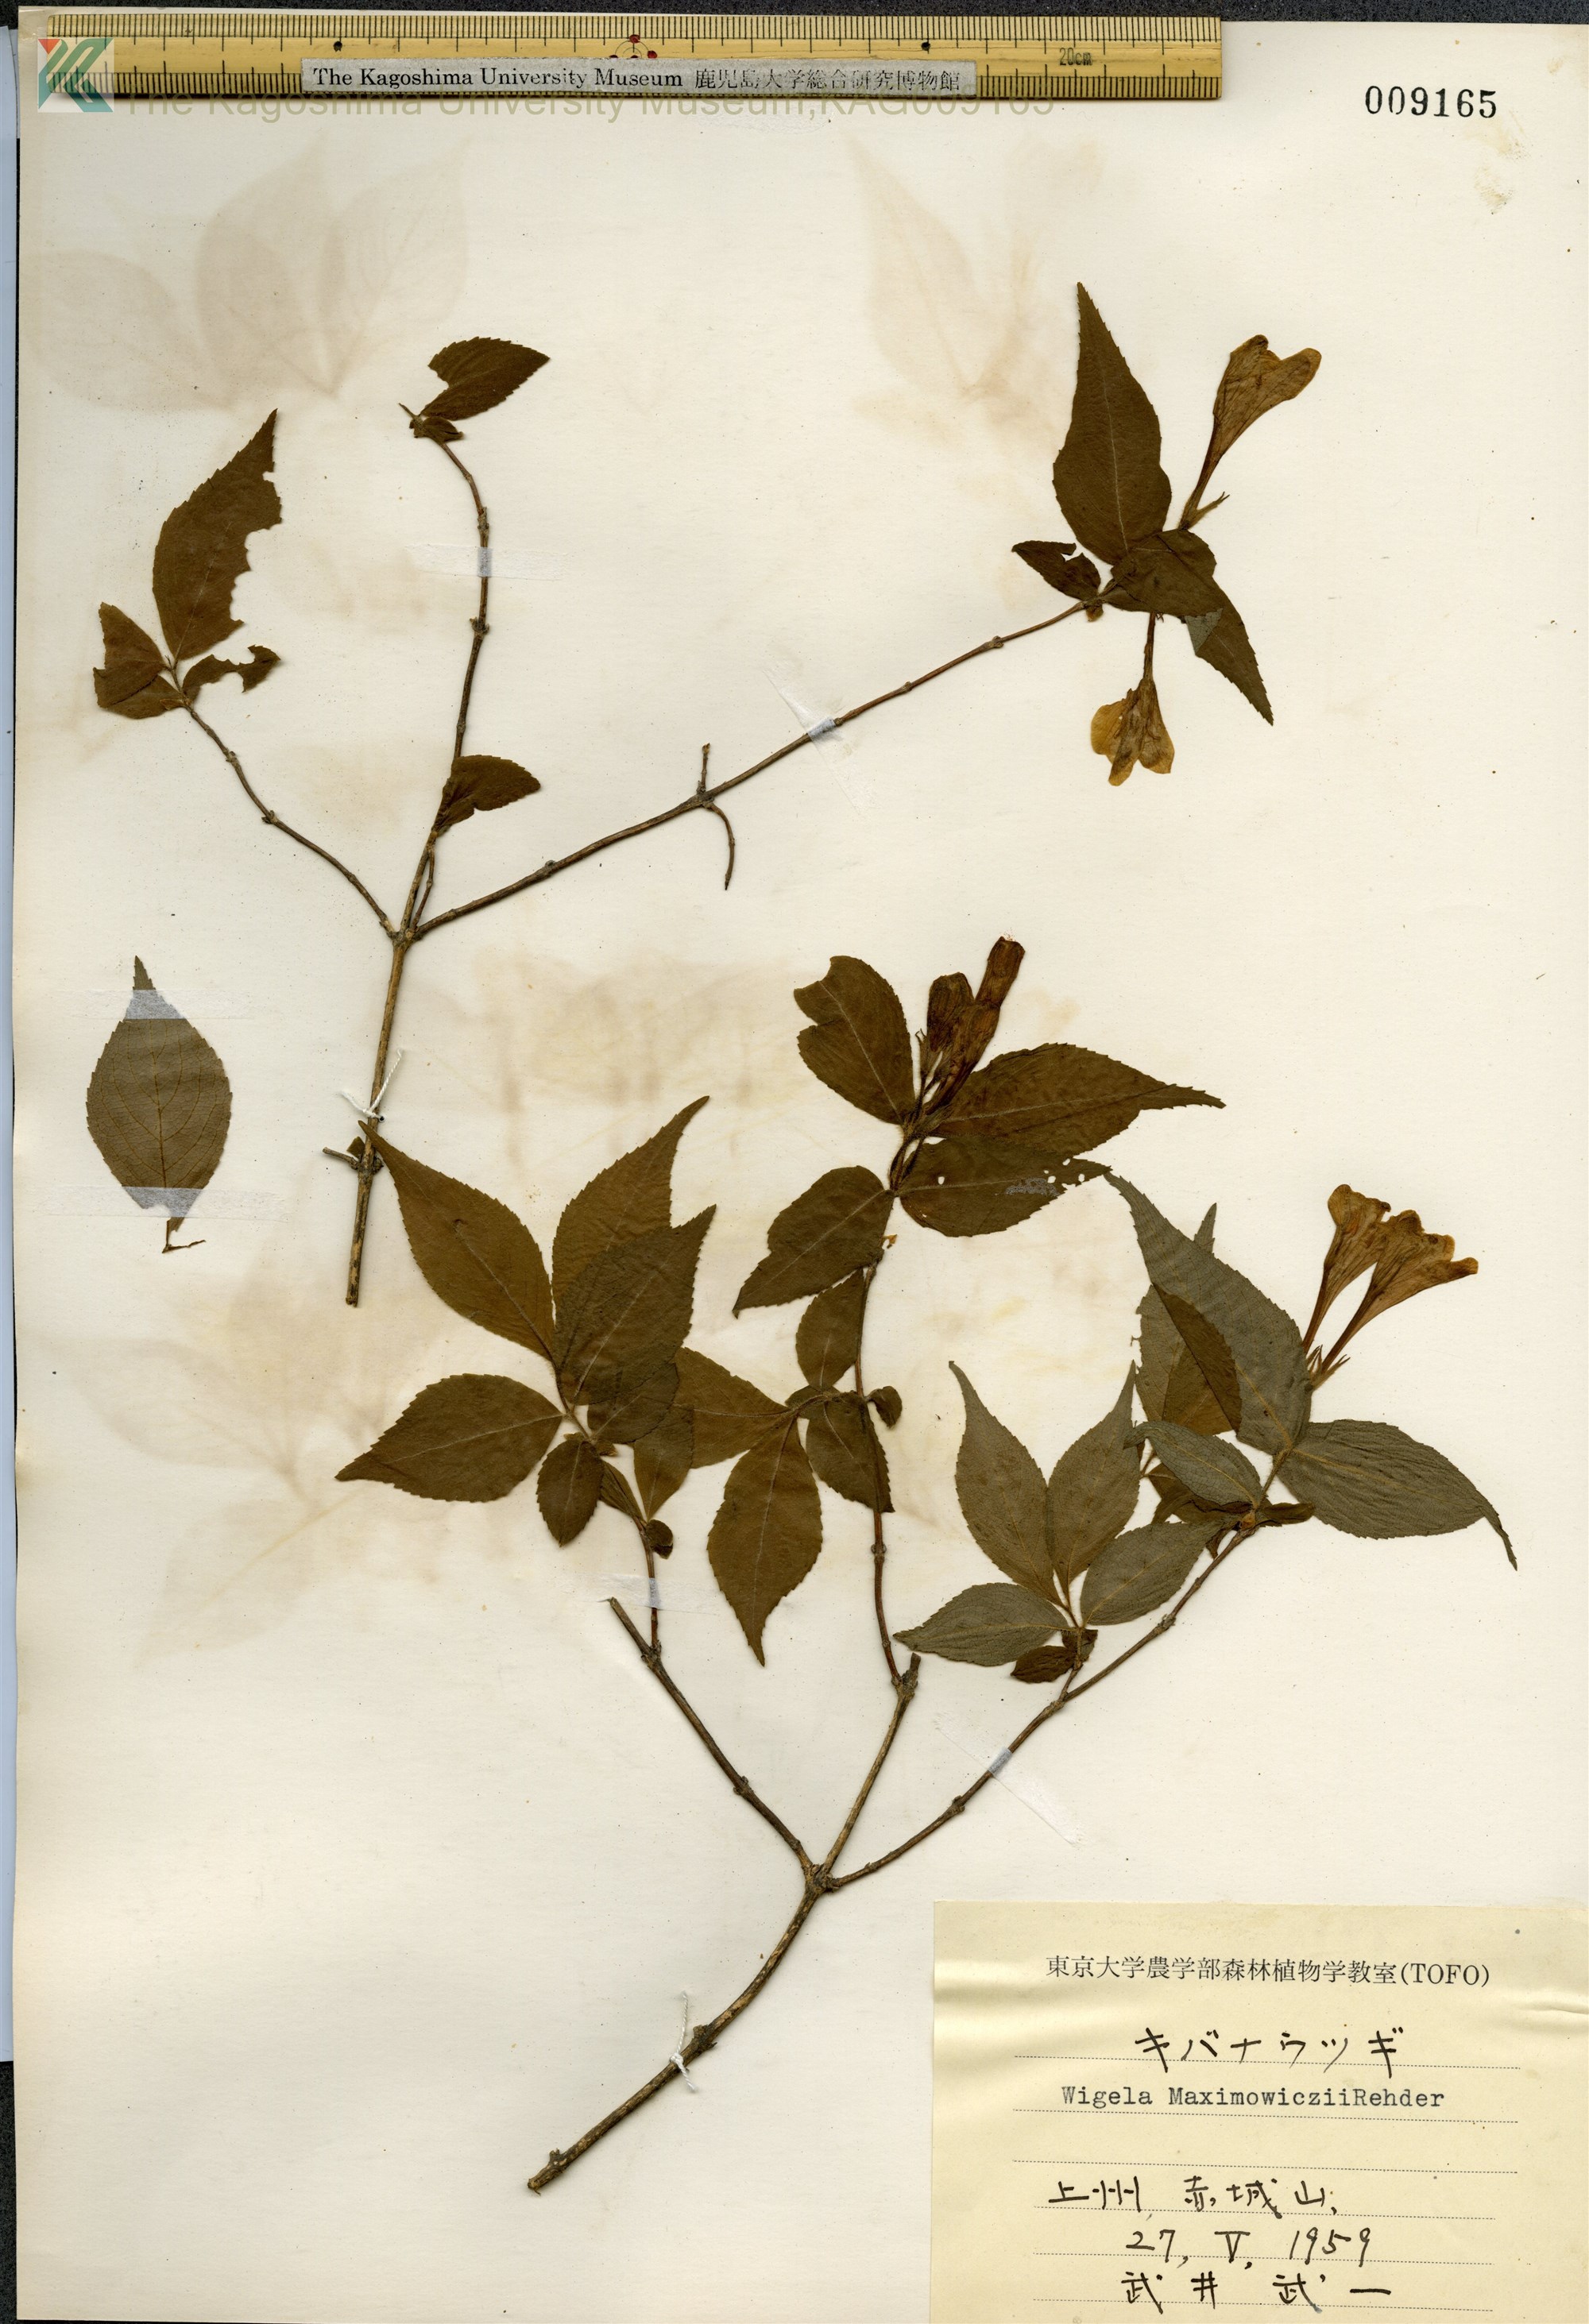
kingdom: Plantae
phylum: Tracheophyta
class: Magnoliopsida
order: Dipsacales
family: Caprifoliaceae
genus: Weigela
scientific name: Weigela maximowiczii
